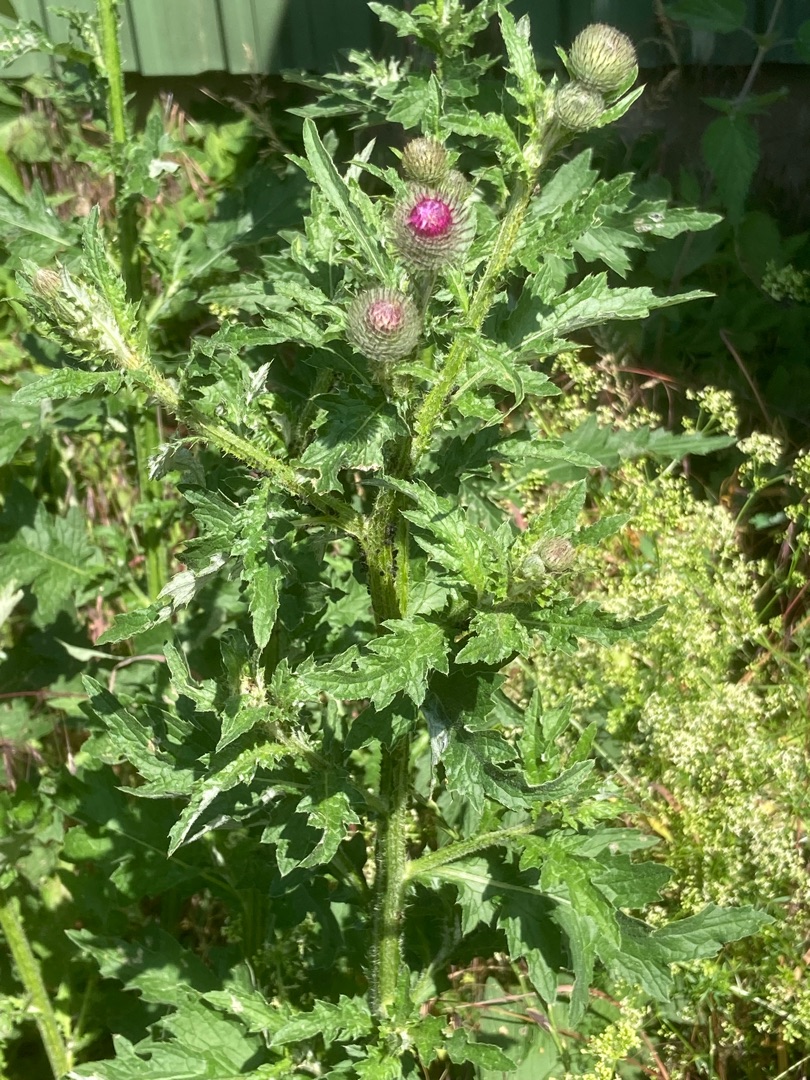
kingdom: Plantae
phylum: Tracheophyta
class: Magnoliopsida
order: Asterales
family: Asteraceae
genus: Carduus
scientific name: Carduus crispus
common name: Kruset tidsel
